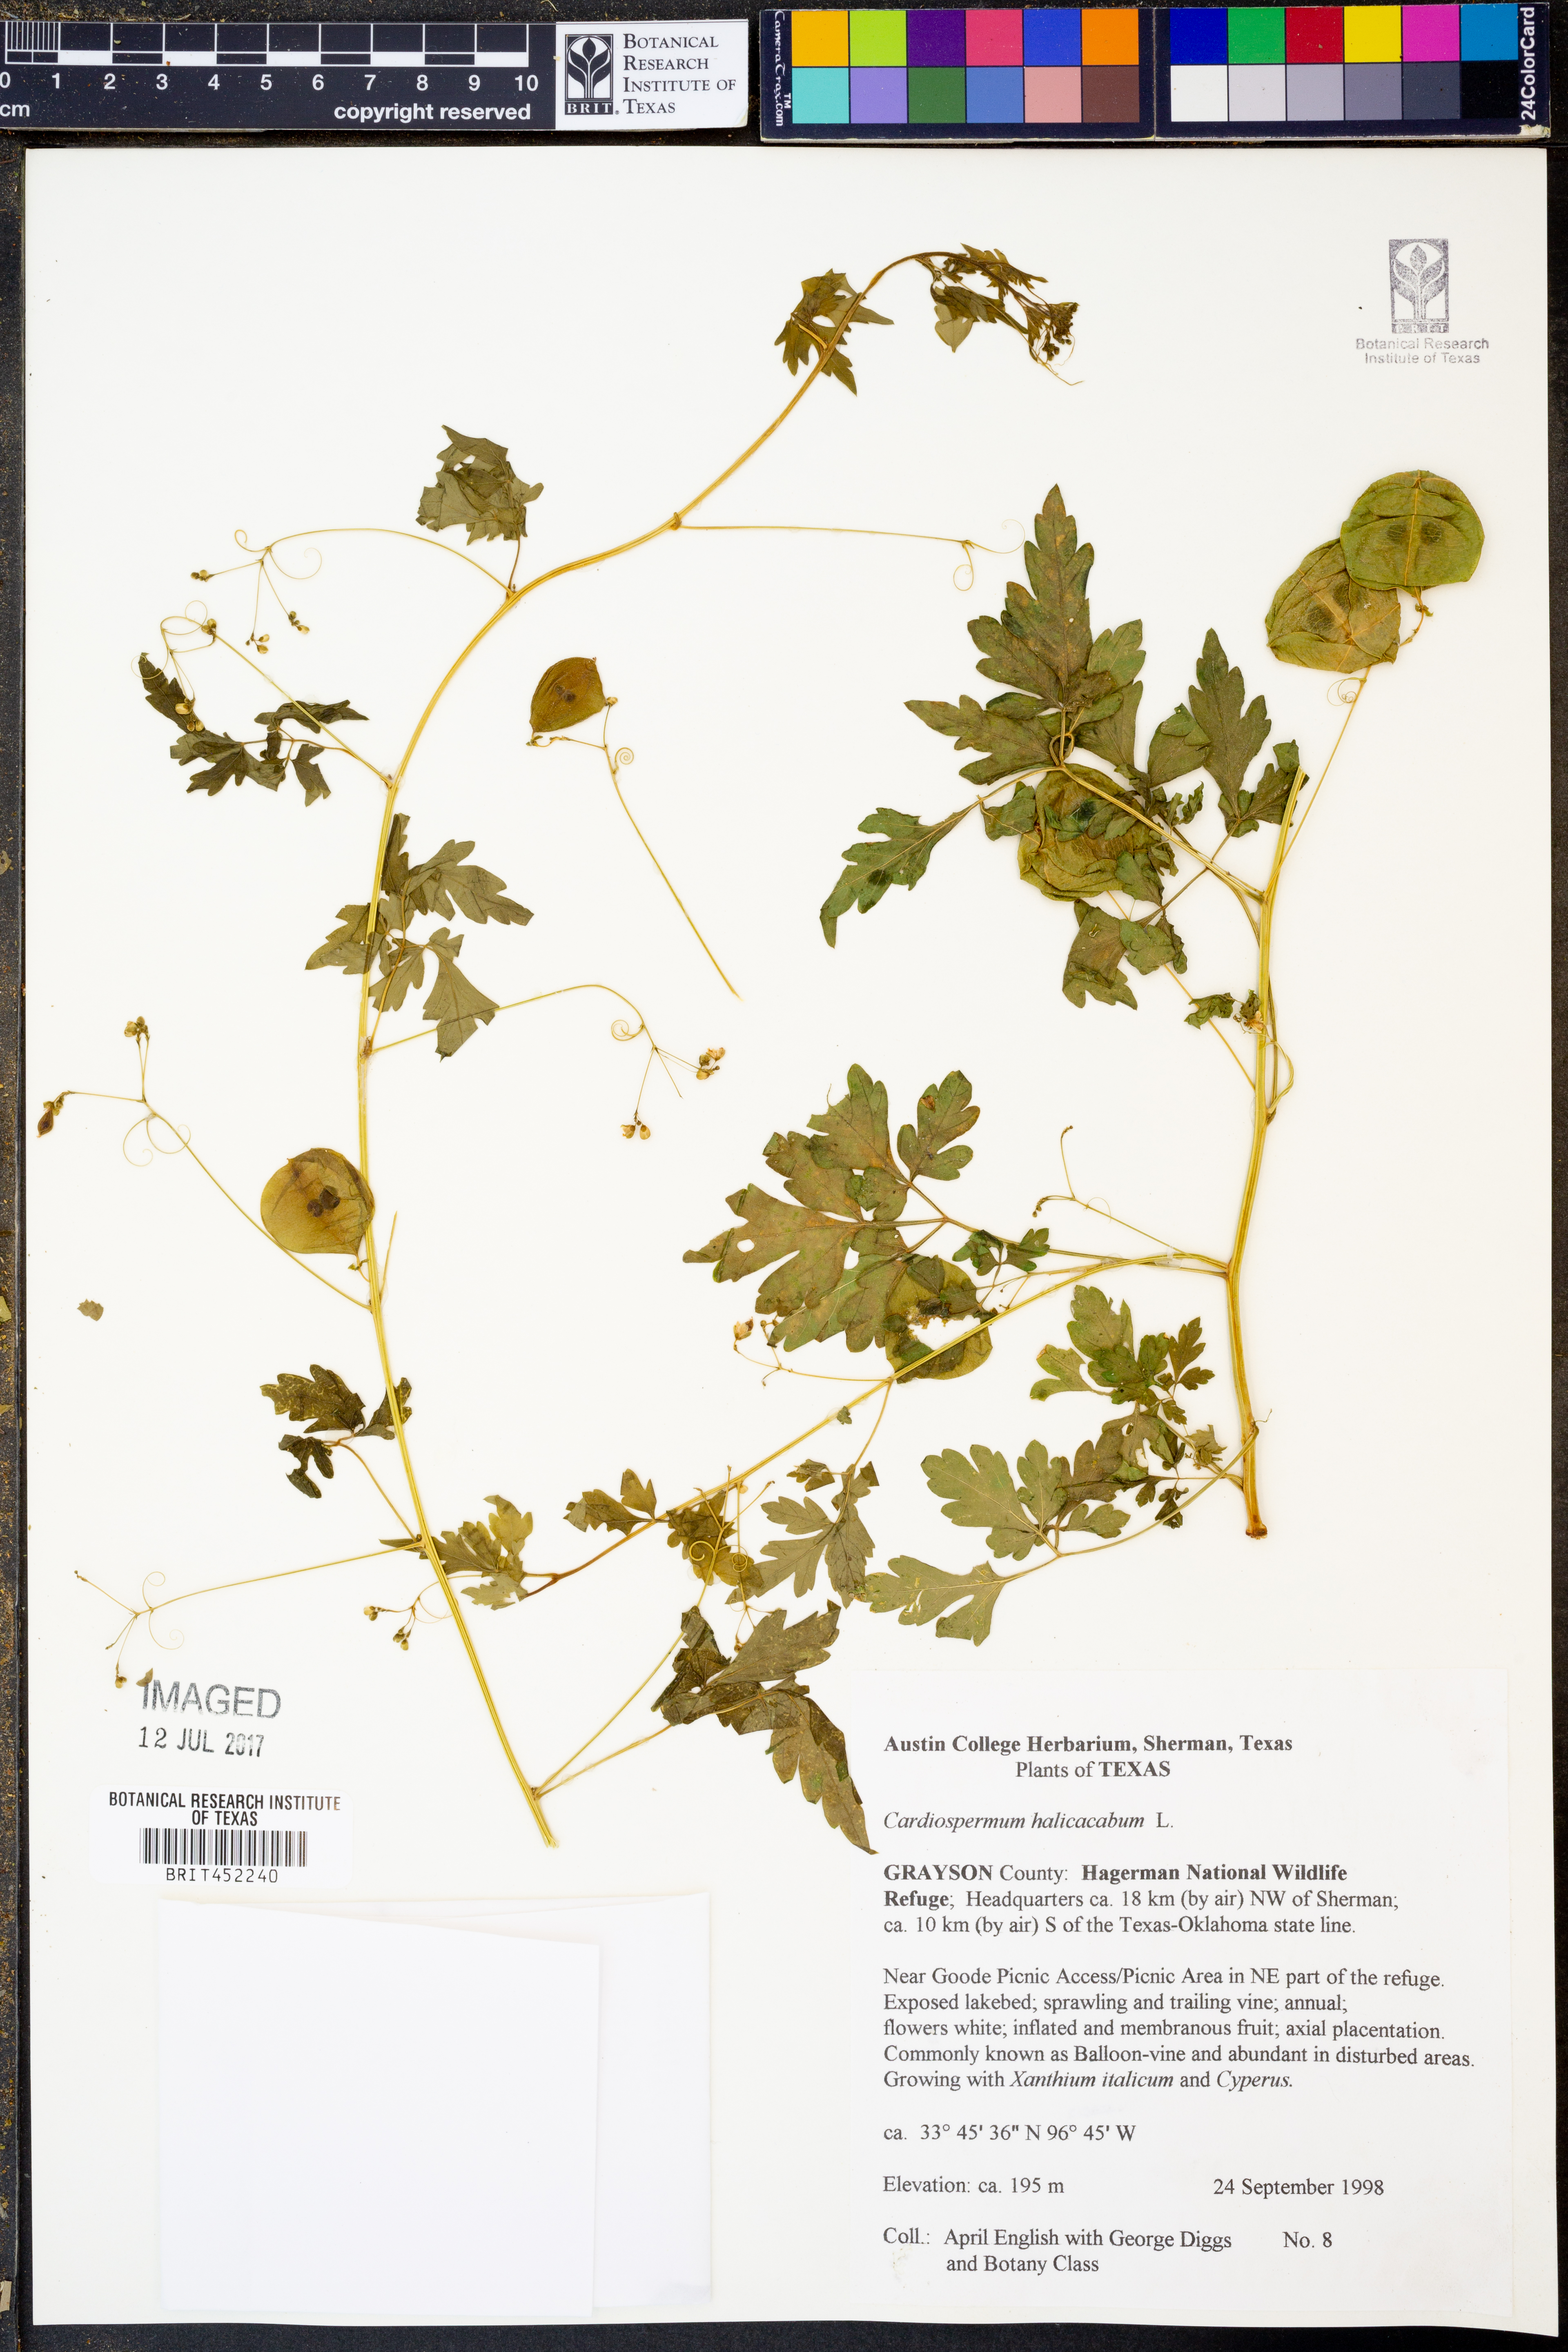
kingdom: Plantae
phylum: Tracheophyta
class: Magnoliopsida
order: Sapindales
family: Sapindaceae
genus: Cardiospermum
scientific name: Cardiospermum halicacabum
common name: Balloon vine
